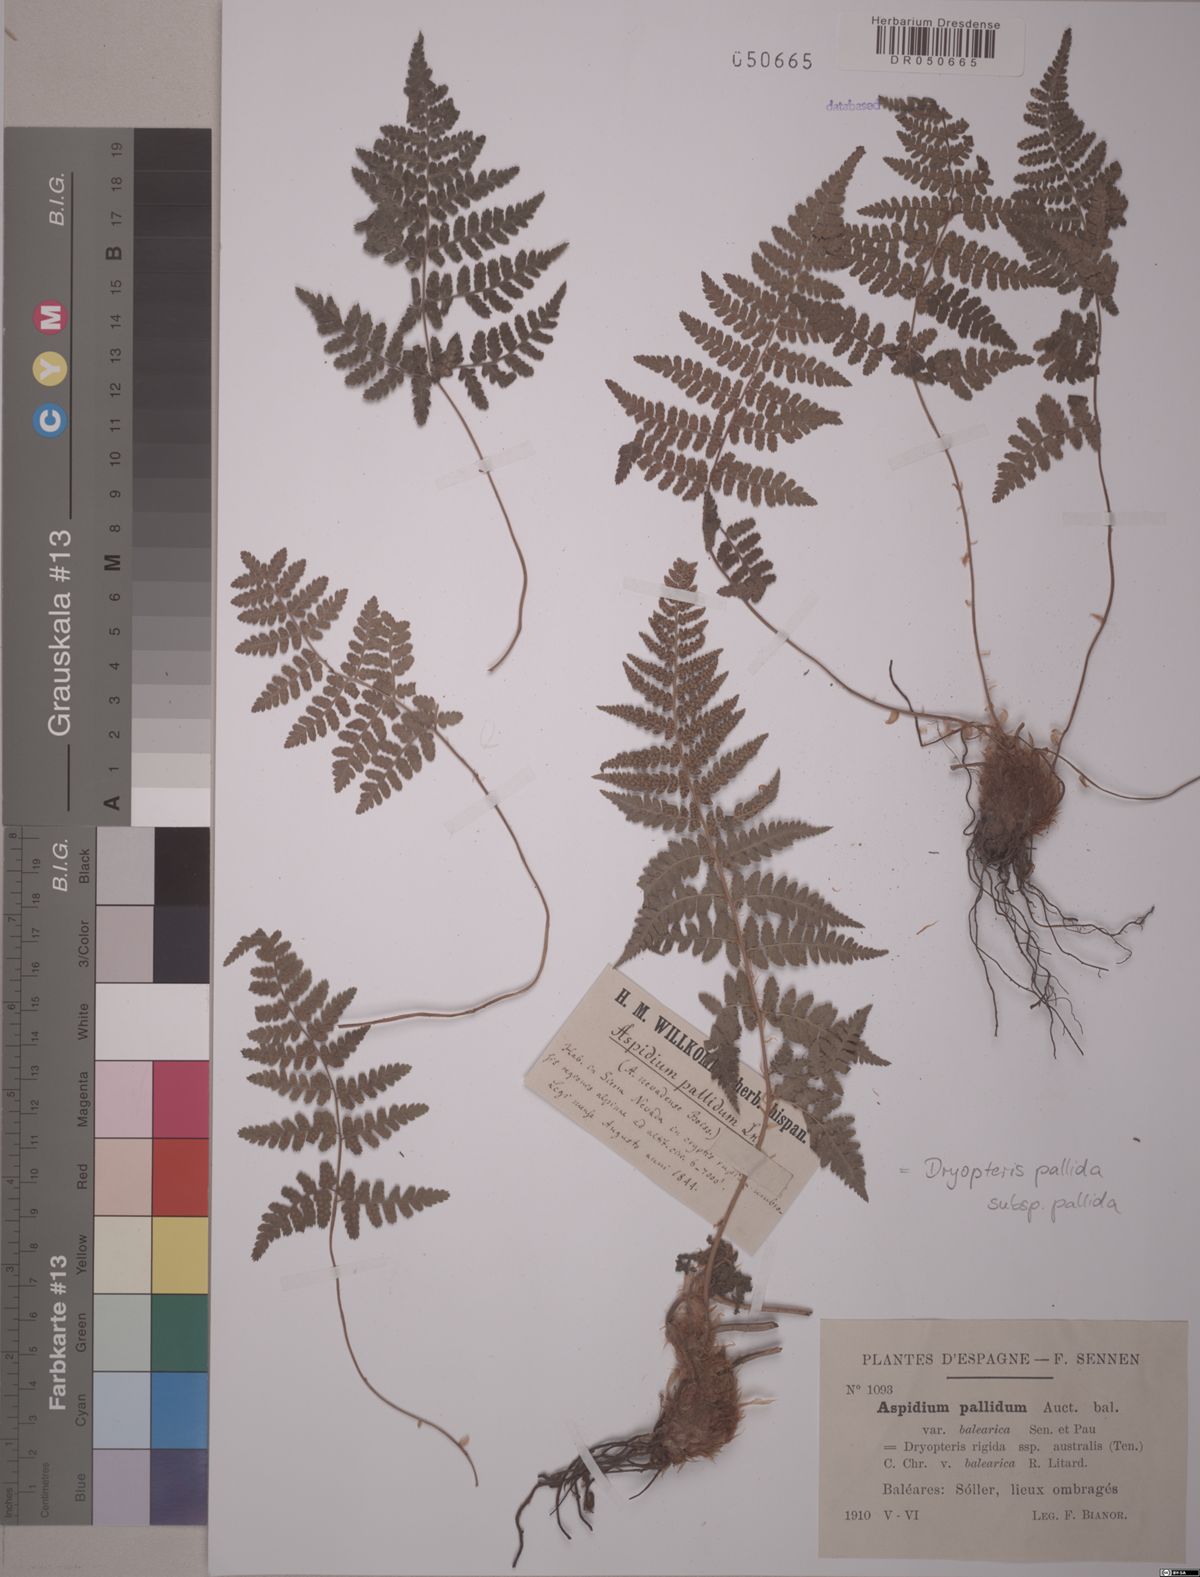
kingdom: Plantae
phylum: Tracheophyta
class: Polypodiopsida
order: Polypodiales
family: Dryopteridaceae
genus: Dryopteris
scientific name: Dryopteris pallida
